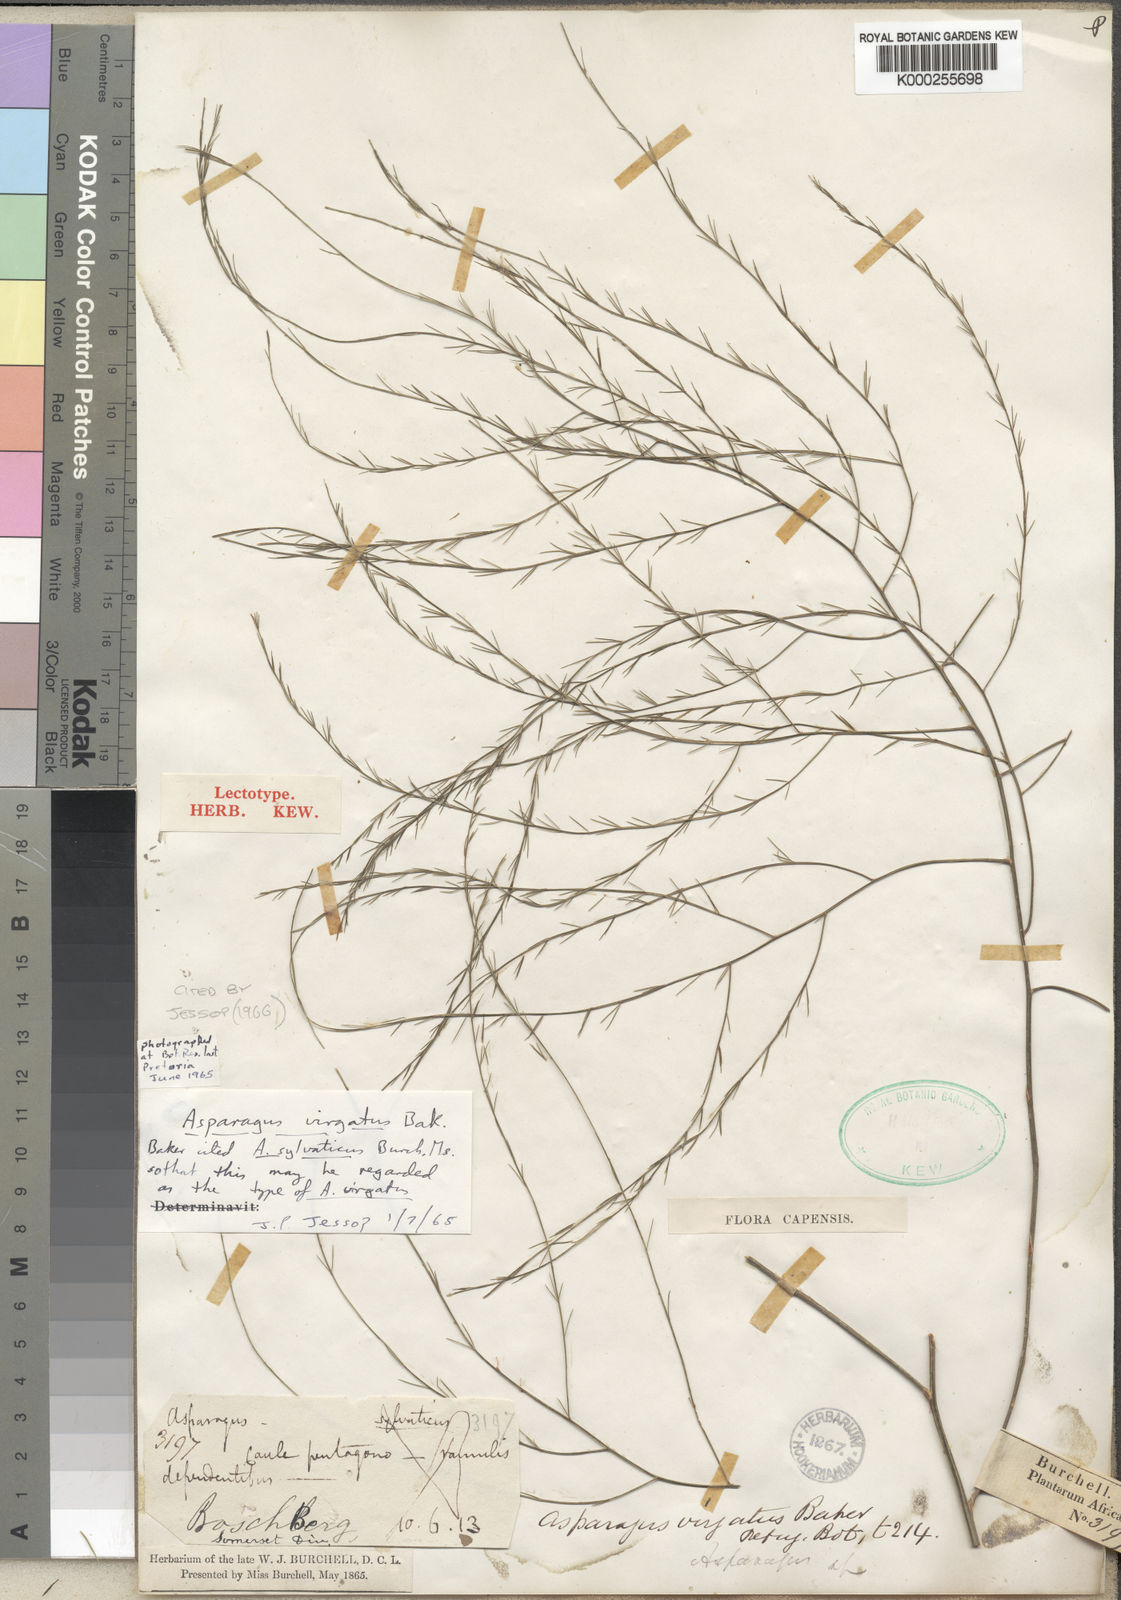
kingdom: Plantae
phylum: Tracheophyta
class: Liliopsida
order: Asparagales
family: Asparagaceae
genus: Asparagus
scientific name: Asparagus virgatus
